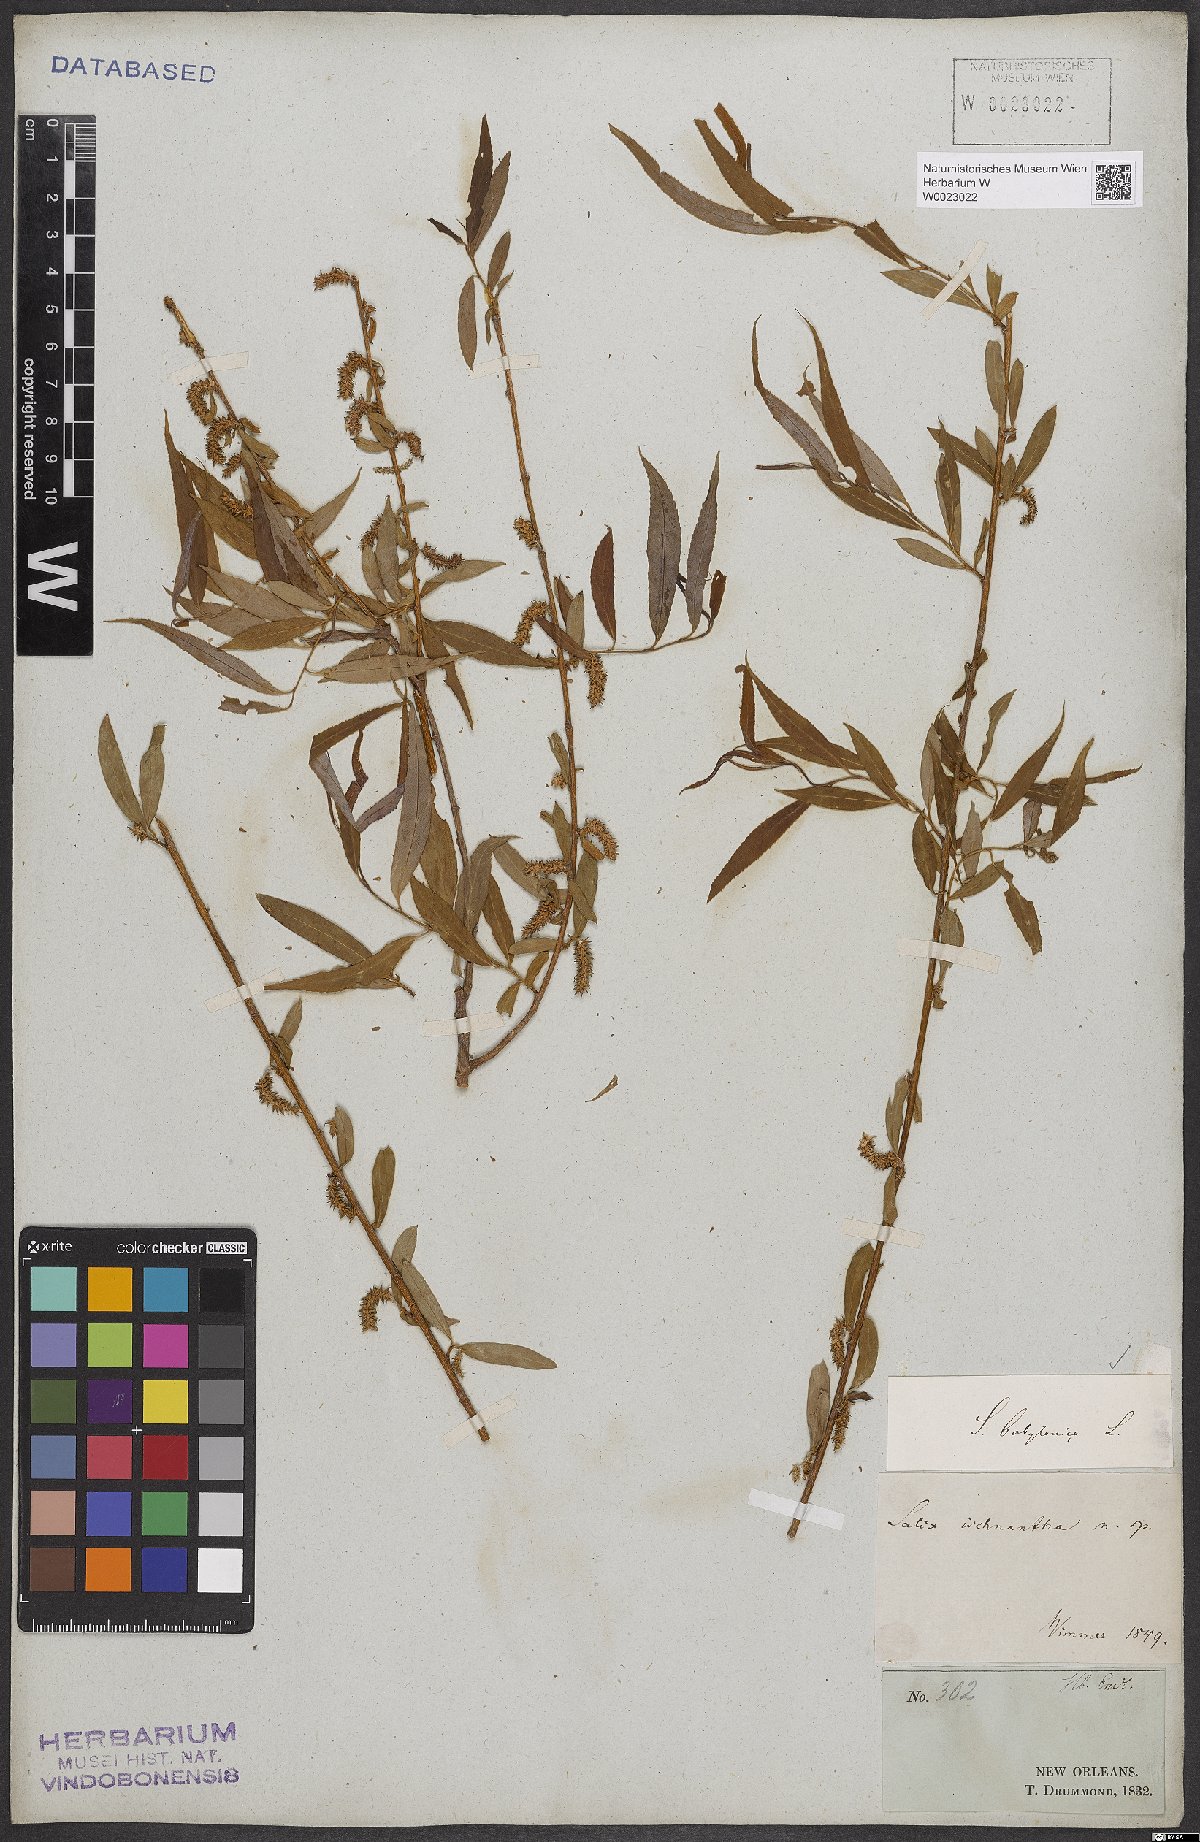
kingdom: Plantae
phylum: Tracheophyta
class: Magnoliopsida
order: Malpighiales
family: Salicaceae
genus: Salix
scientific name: Salix babylonica
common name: Weeping willow
